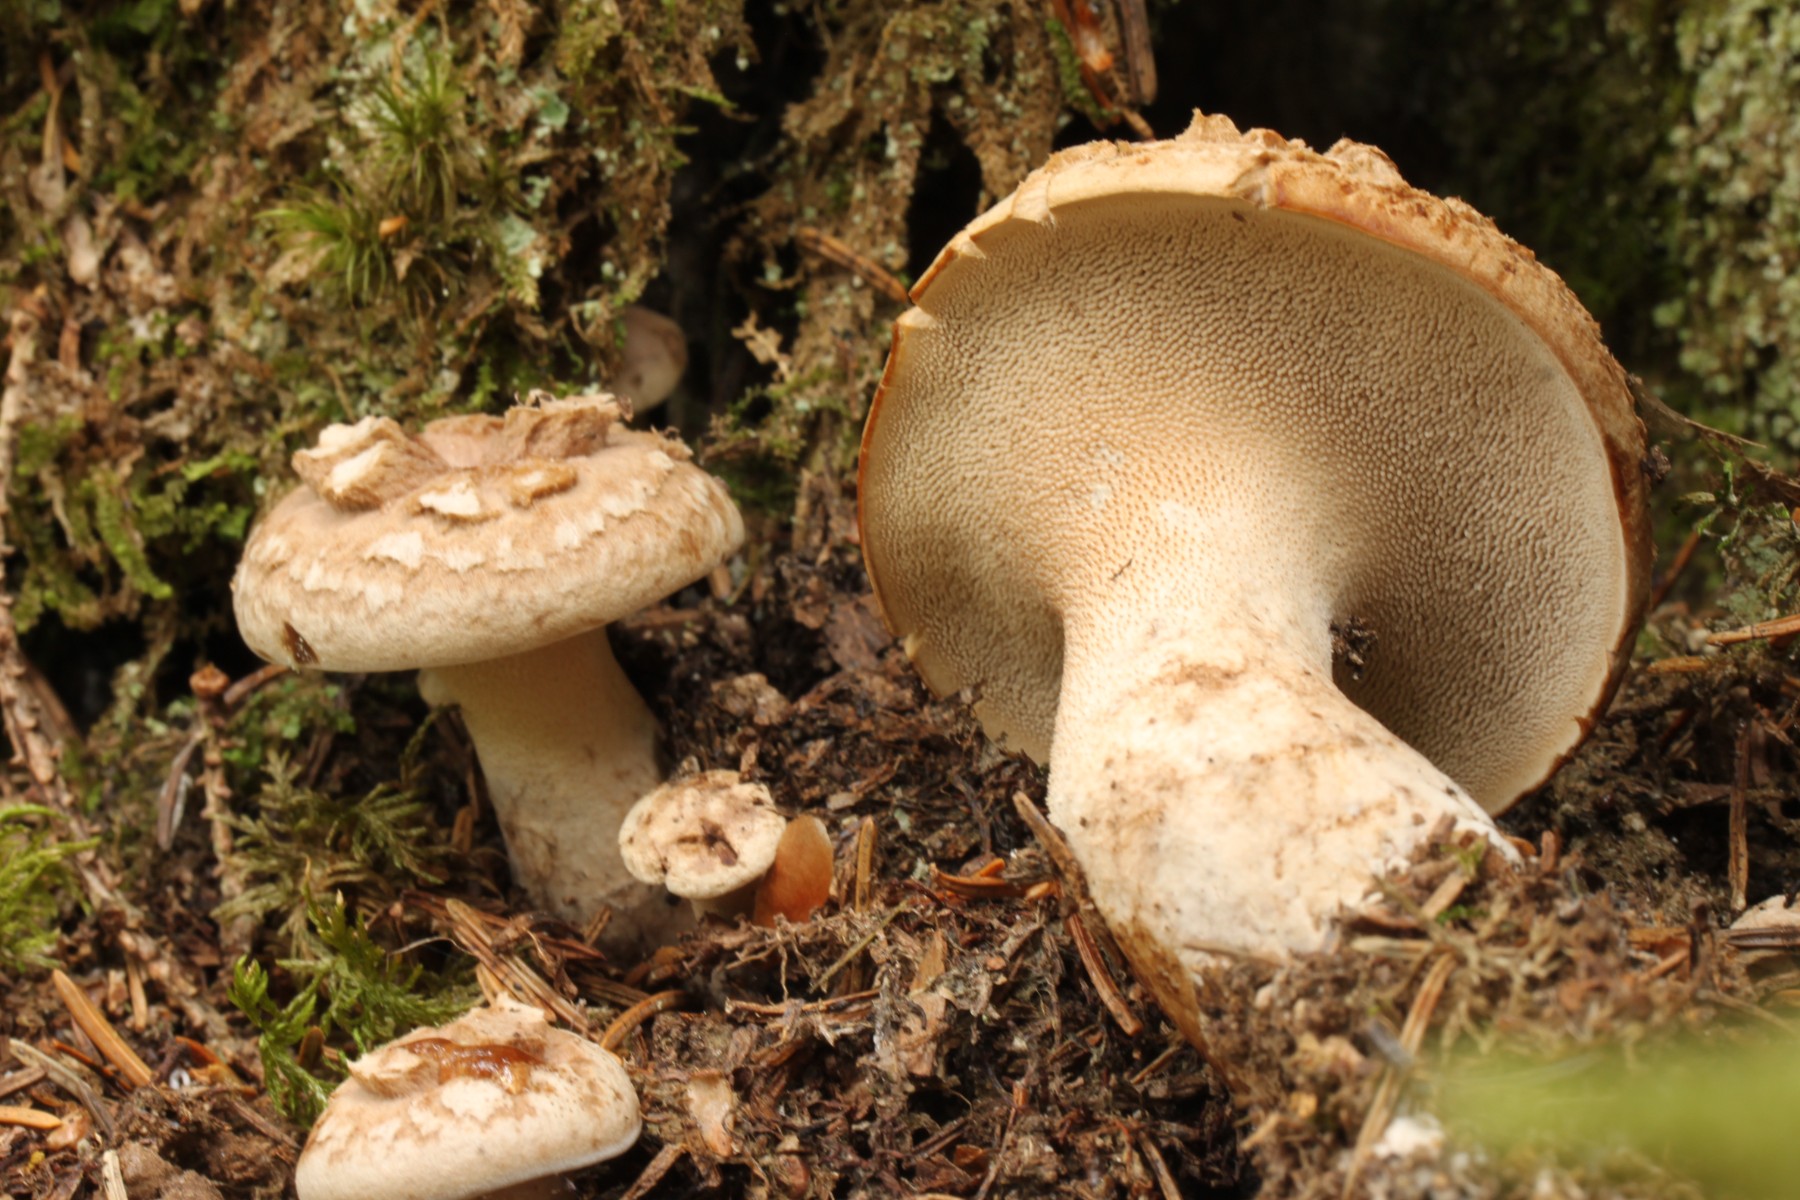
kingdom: Fungi
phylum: Basidiomycota
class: Agaricomycetes
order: Thelephorales
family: Bankeraceae
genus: Sarcodon
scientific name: Sarcodon imbricatus
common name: skællet kødpigsvamp
